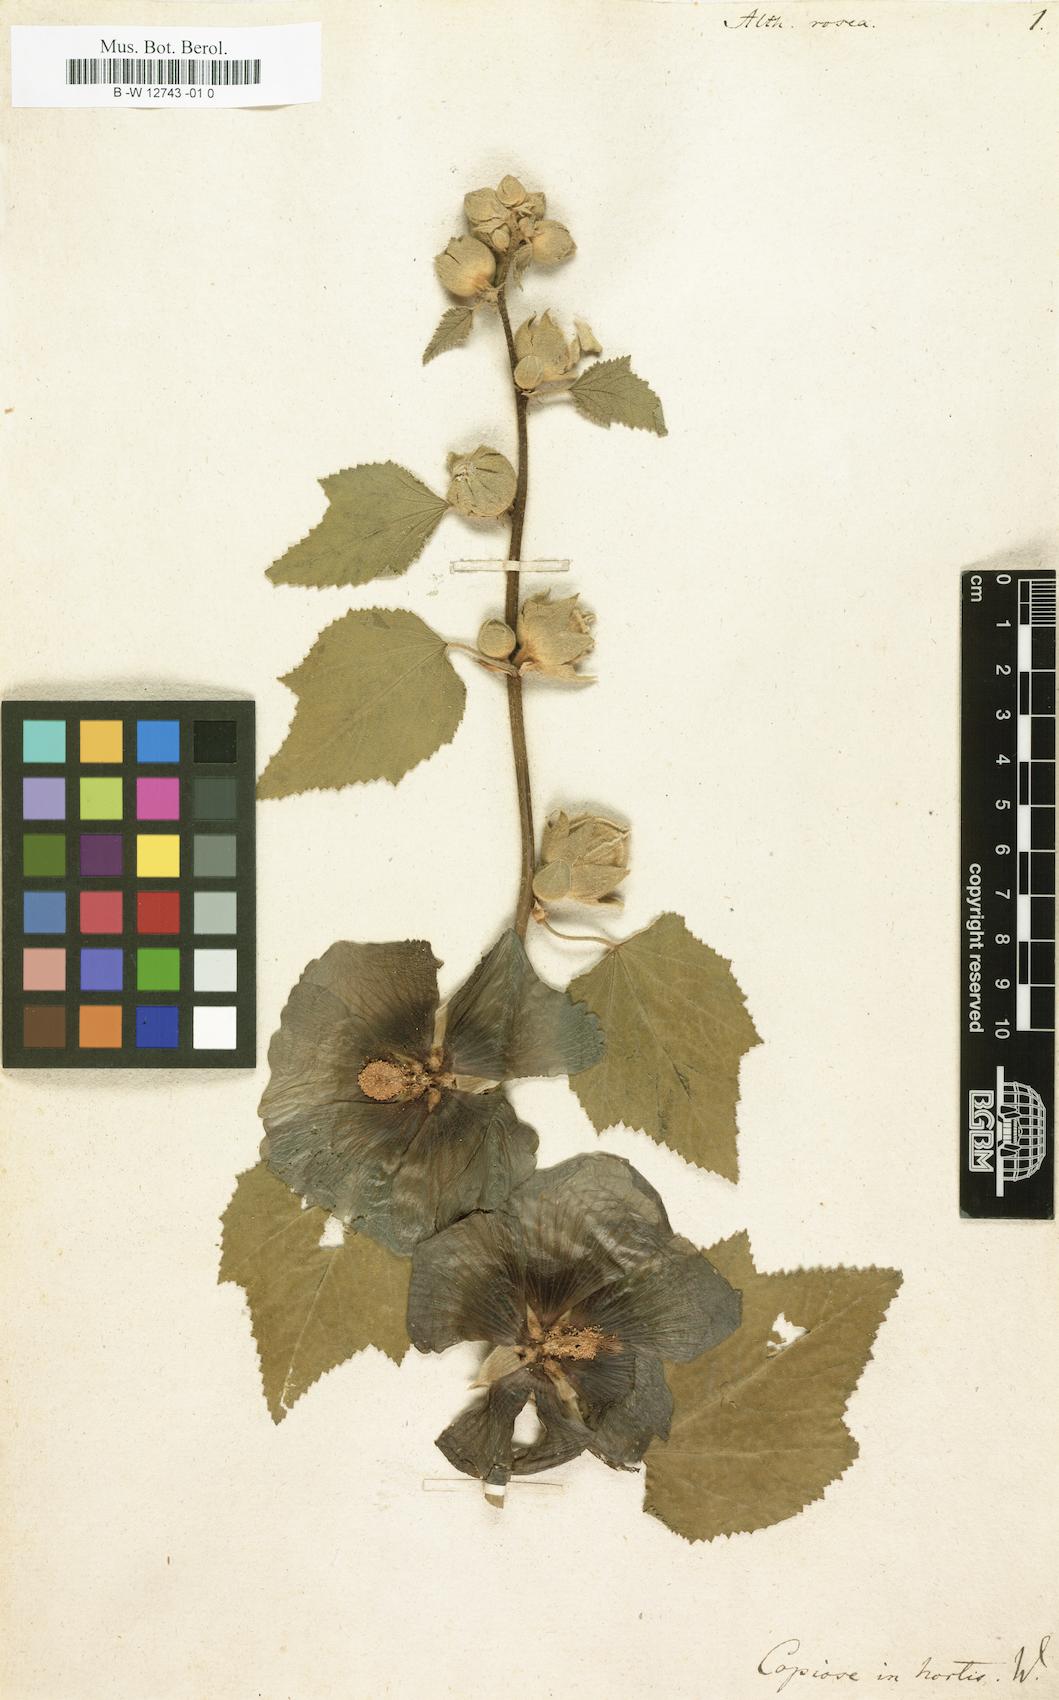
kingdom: Plantae
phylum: Tracheophyta
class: Magnoliopsida
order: Malvales
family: Malvaceae
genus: Alcea
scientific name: Alcea rosea
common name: Hollyhock
